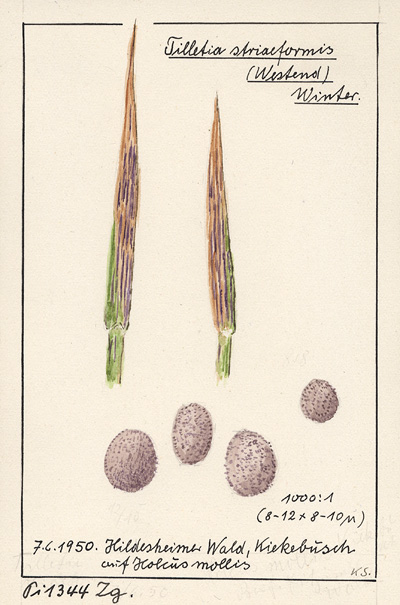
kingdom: Fungi
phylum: Basidiomycota
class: Ustilaginomycetes
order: Ustilaginales
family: Ustilaginaceae
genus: Ustilago
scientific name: Ustilago striiformis
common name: Stripe smut of grasses
